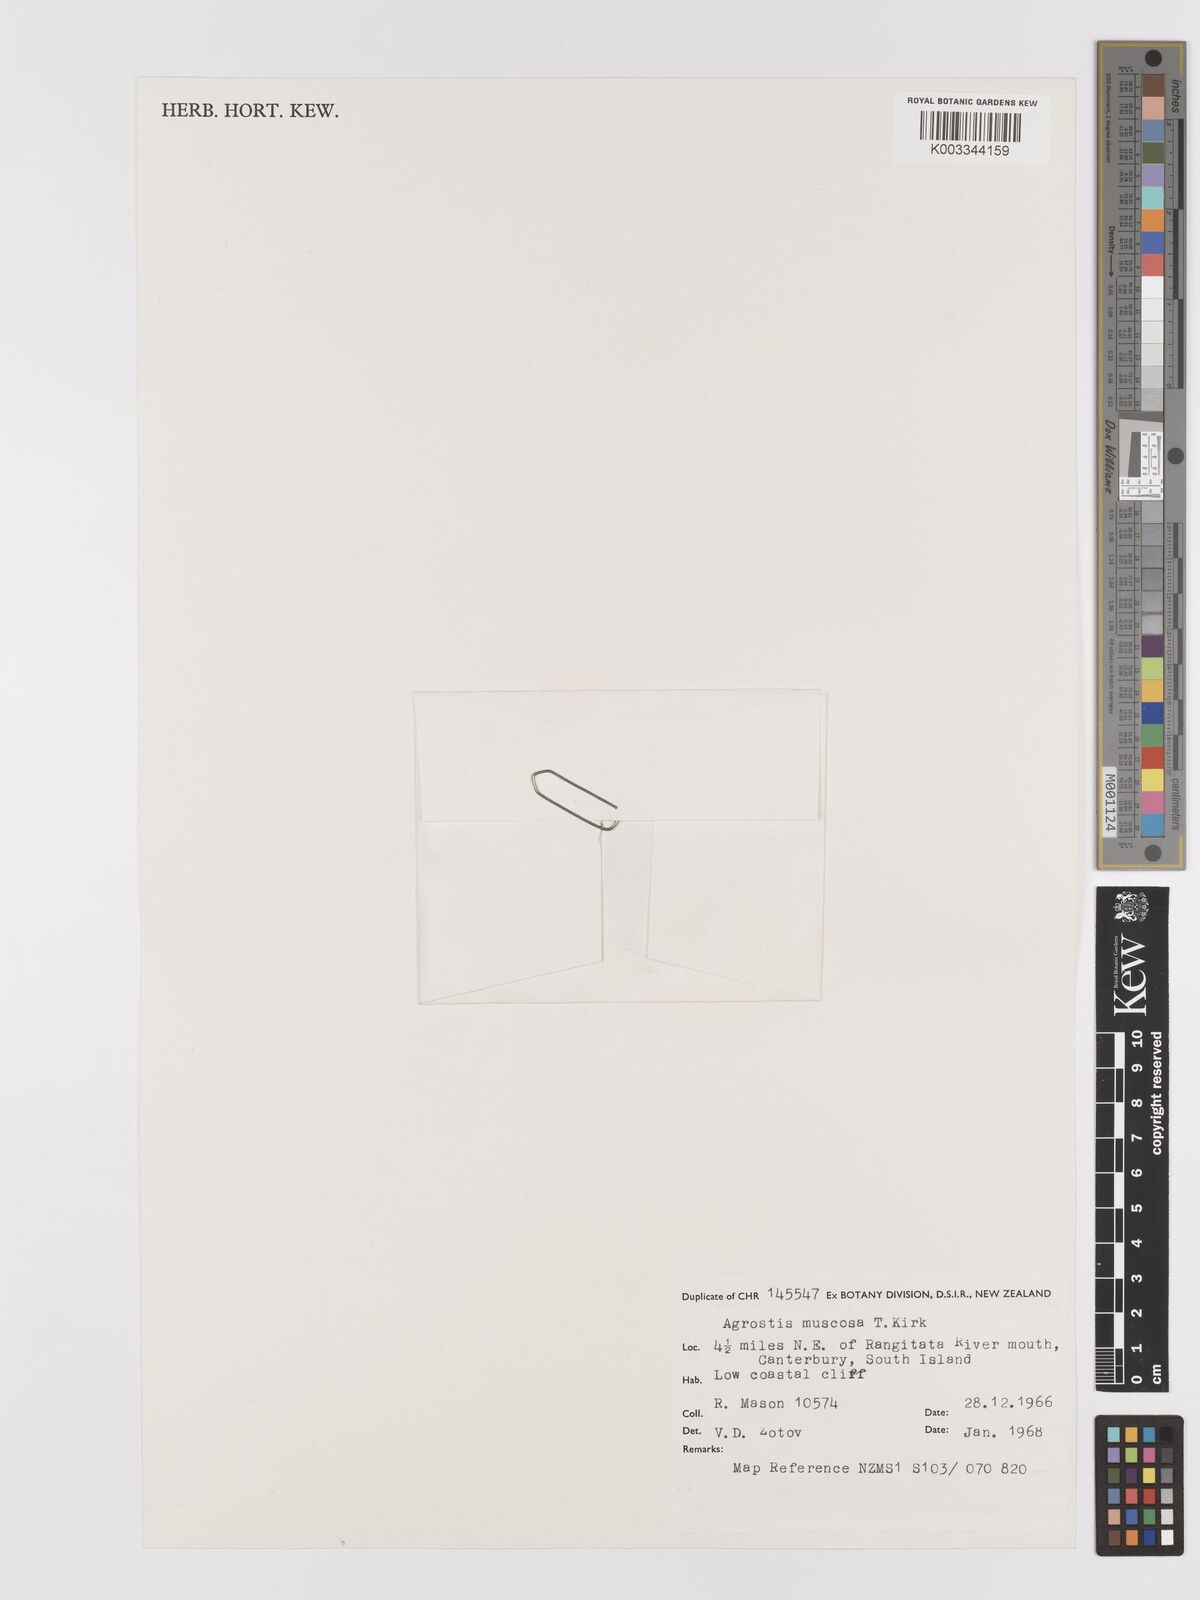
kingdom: Plantae
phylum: Tracheophyta
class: Liliopsida
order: Poales
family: Poaceae
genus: Agrostis
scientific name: Agrostis muscosa
